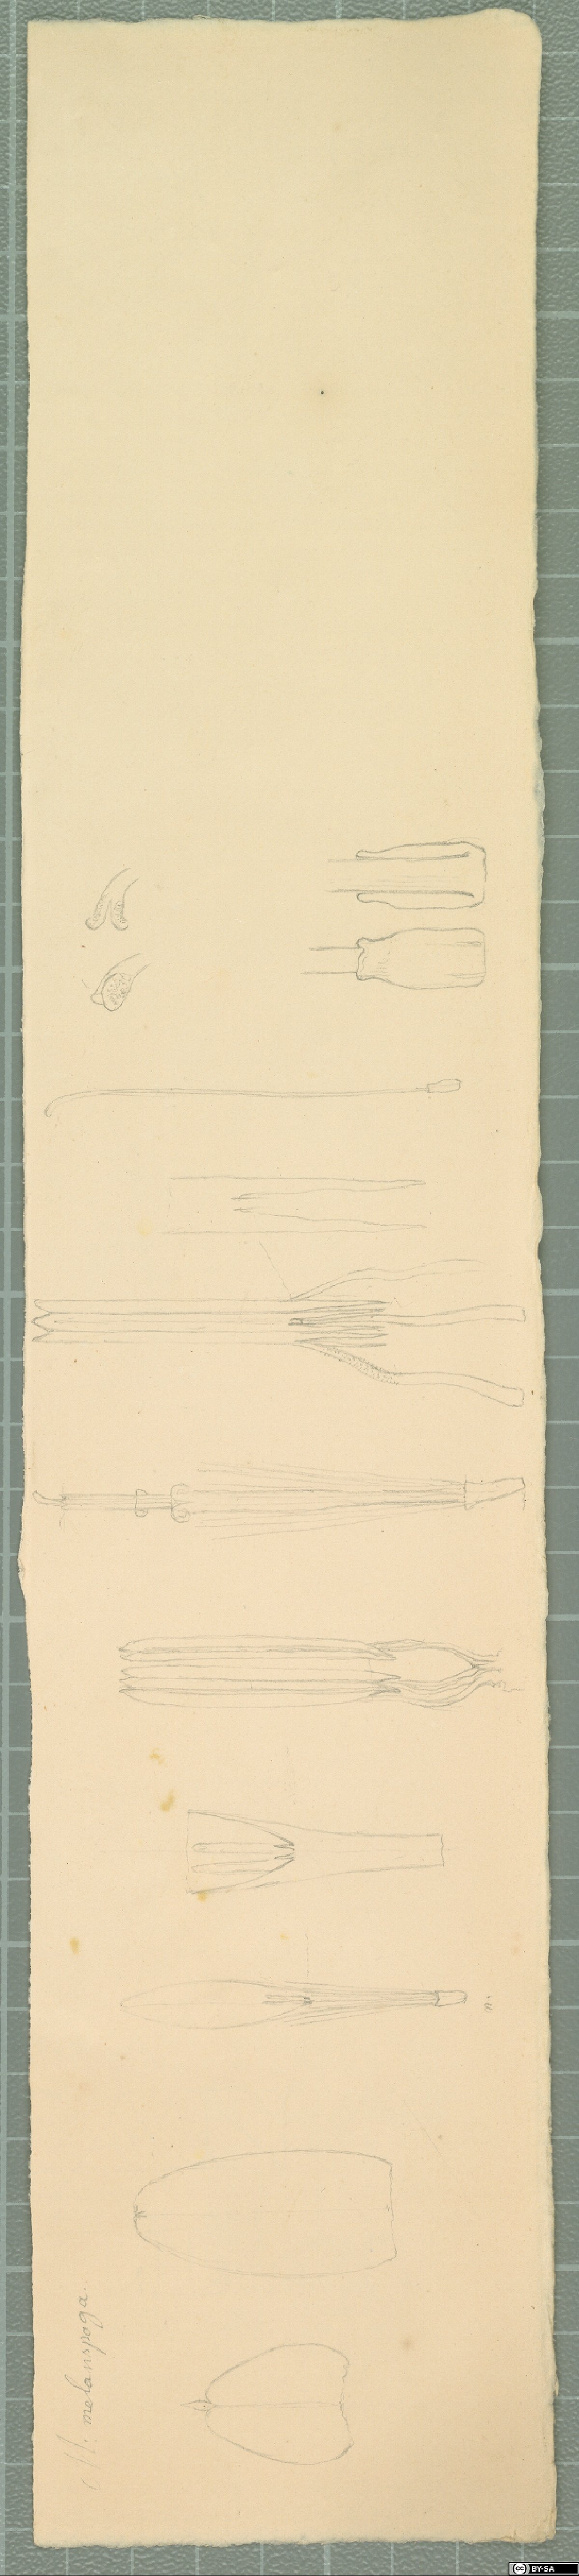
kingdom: Plantae
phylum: Tracheophyta
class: Magnoliopsida
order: Asterales
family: Asteraceae
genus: Mutisia
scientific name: Mutisia subulata
